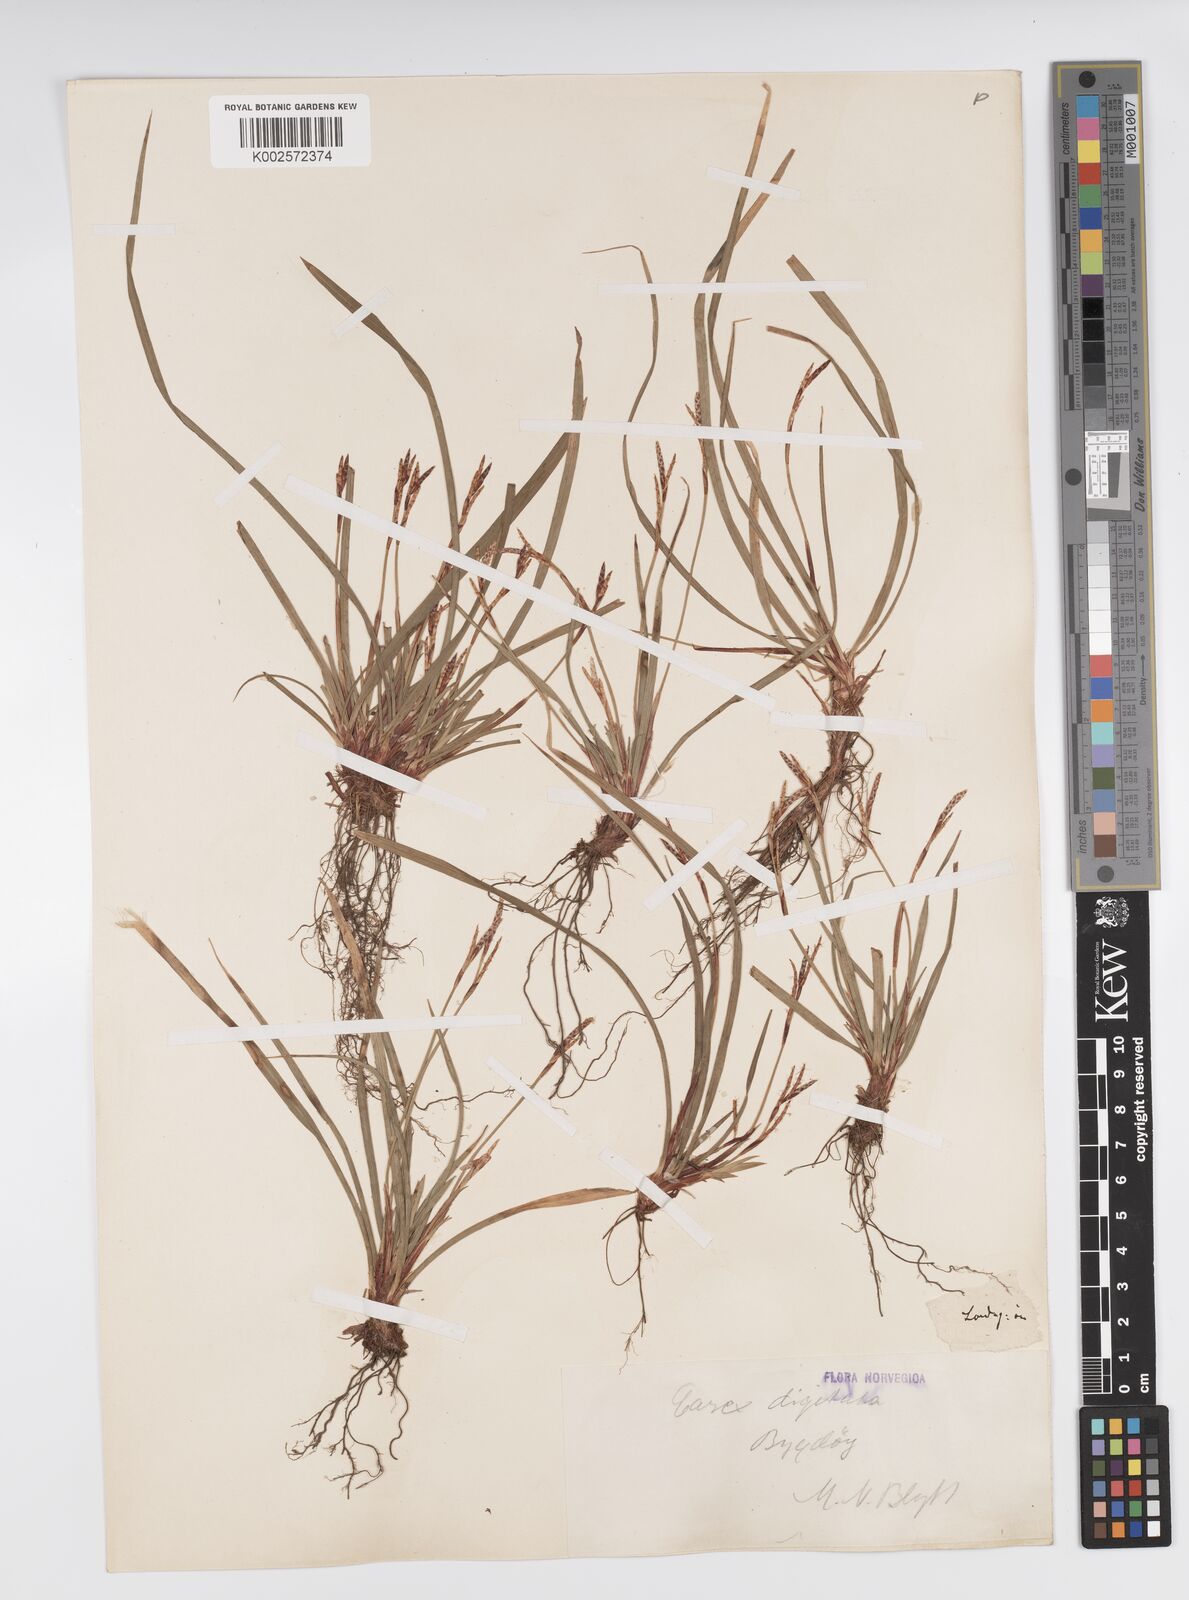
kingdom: Plantae
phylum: Tracheophyta
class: Liliopsida
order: Poales
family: Cyperaceae
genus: Carex
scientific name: Carex digitata
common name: Fingered sedge
